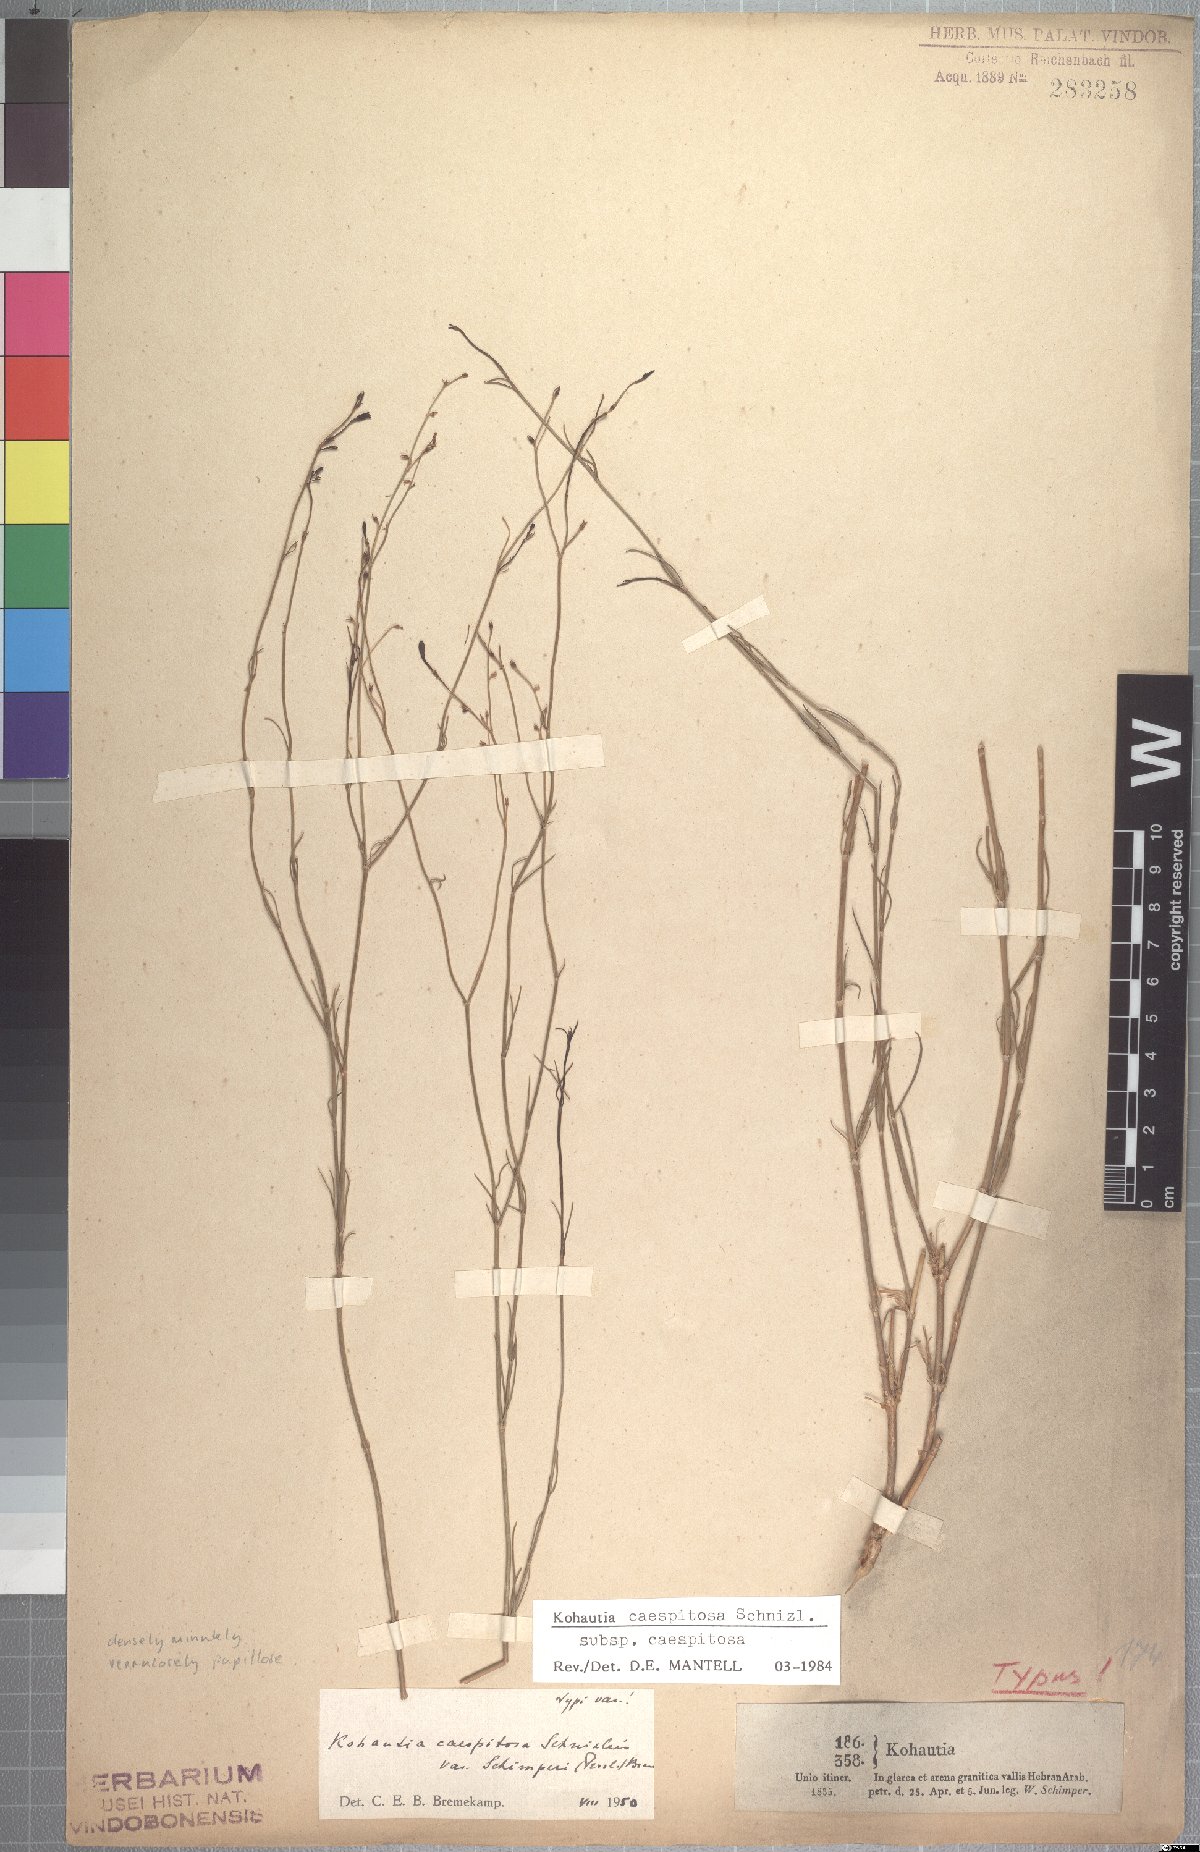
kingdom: Plantae
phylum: Tracheophyta
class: Magnoliopsida
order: Gentianales
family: Rubiaceae
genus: Kohautia
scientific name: Kohautia caespitosa
